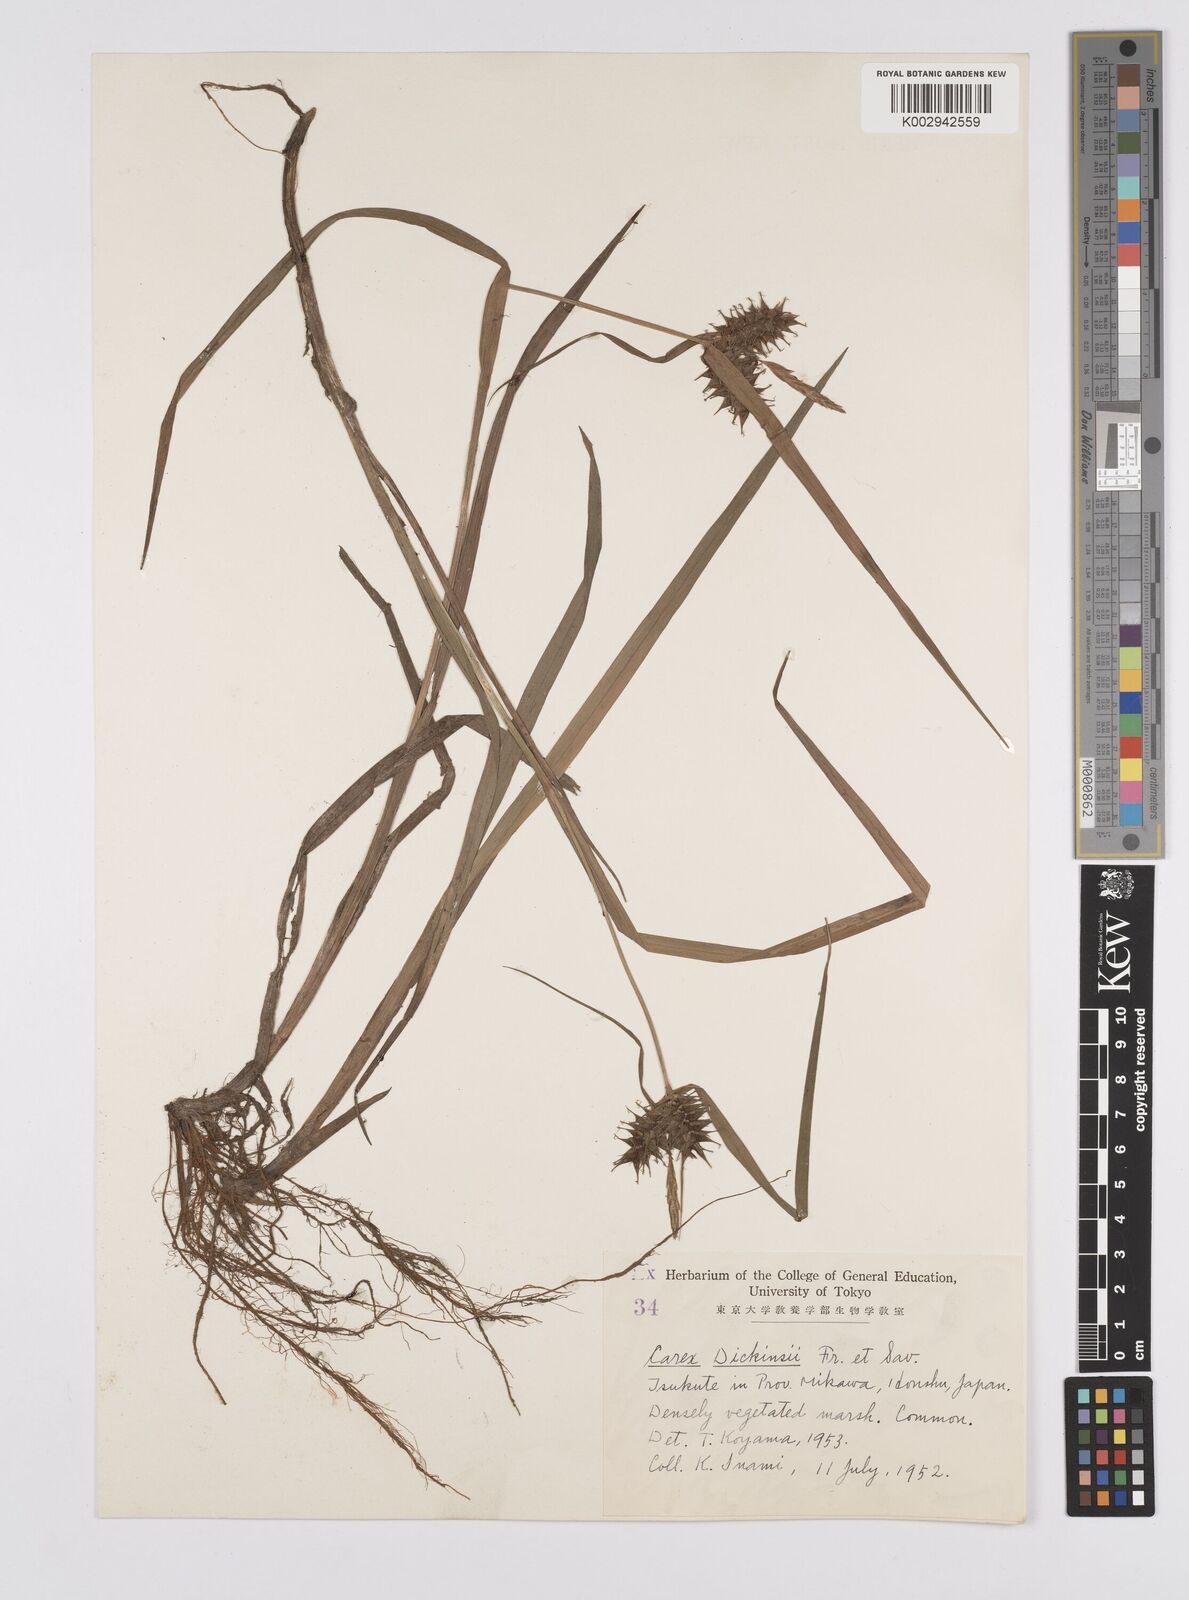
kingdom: Plantae
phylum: Tracheophyta
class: Liliopsida
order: Poales
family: Cyperaceae
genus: Carex
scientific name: Carex dickinsii
